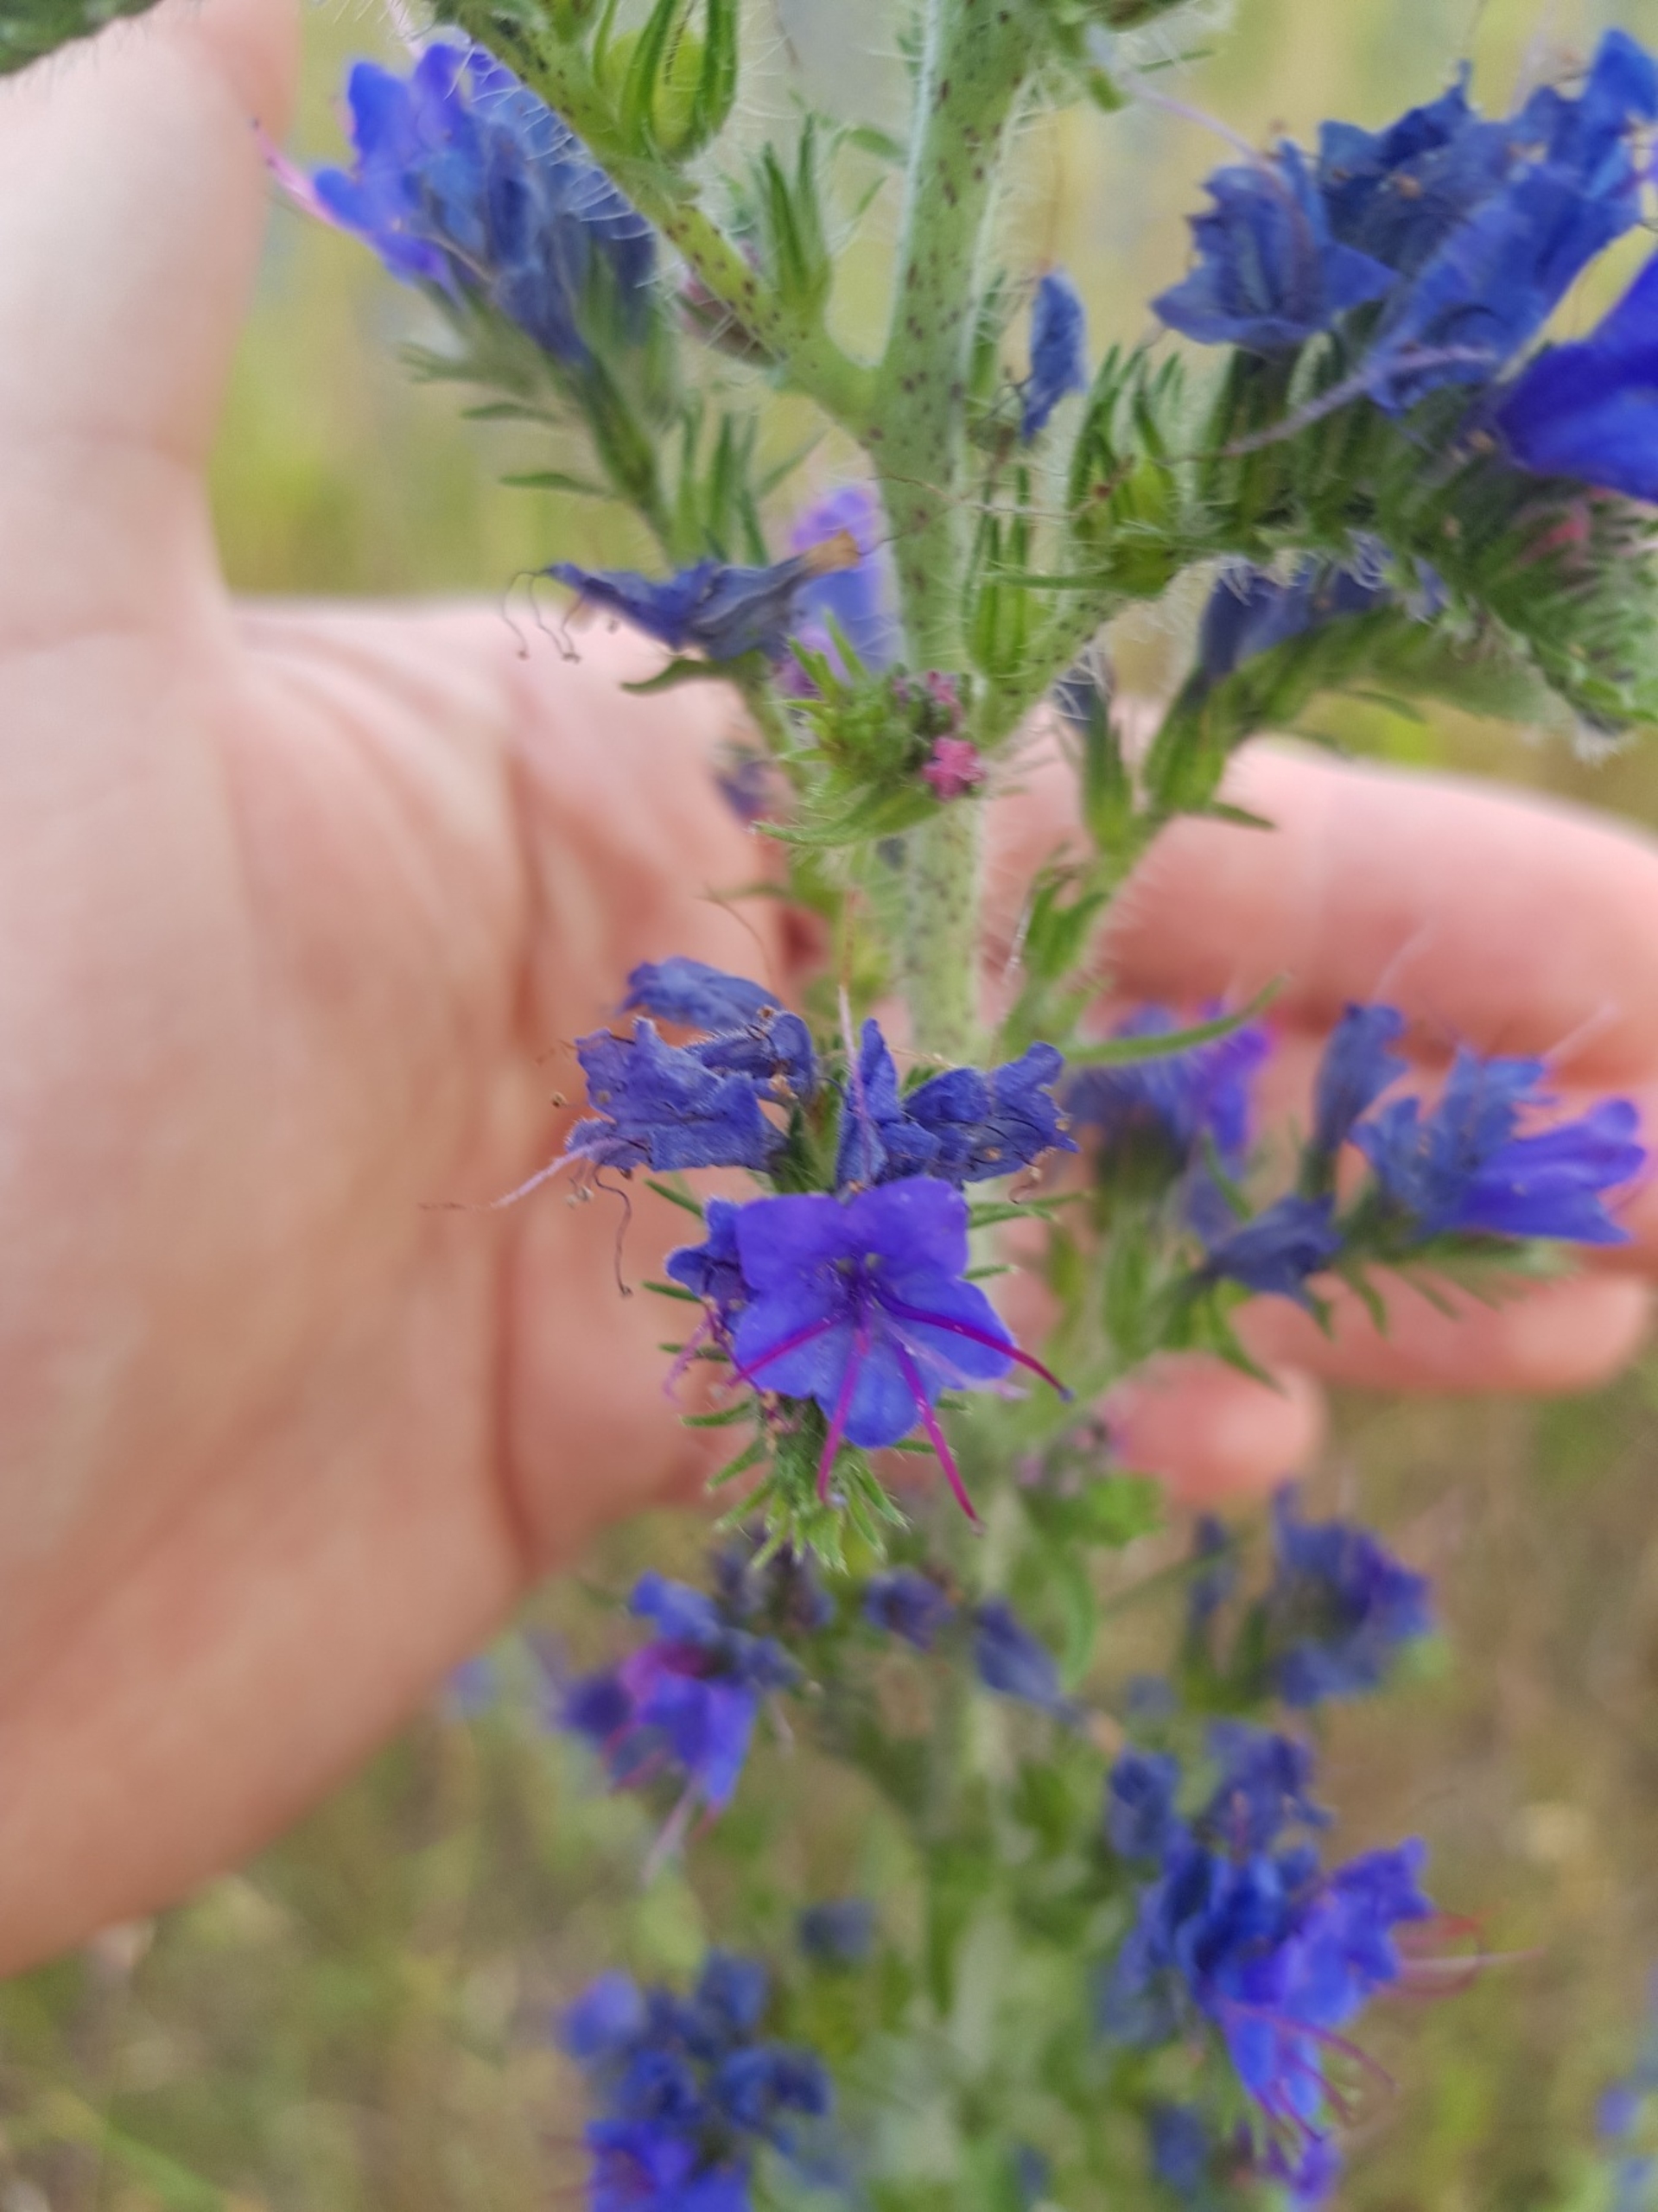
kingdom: Plantae
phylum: Tracheophyta
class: Magnoliopsida
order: Boraginales
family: Boraginaceae
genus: Echium
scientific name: Echium vulgare
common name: Slangehoved
